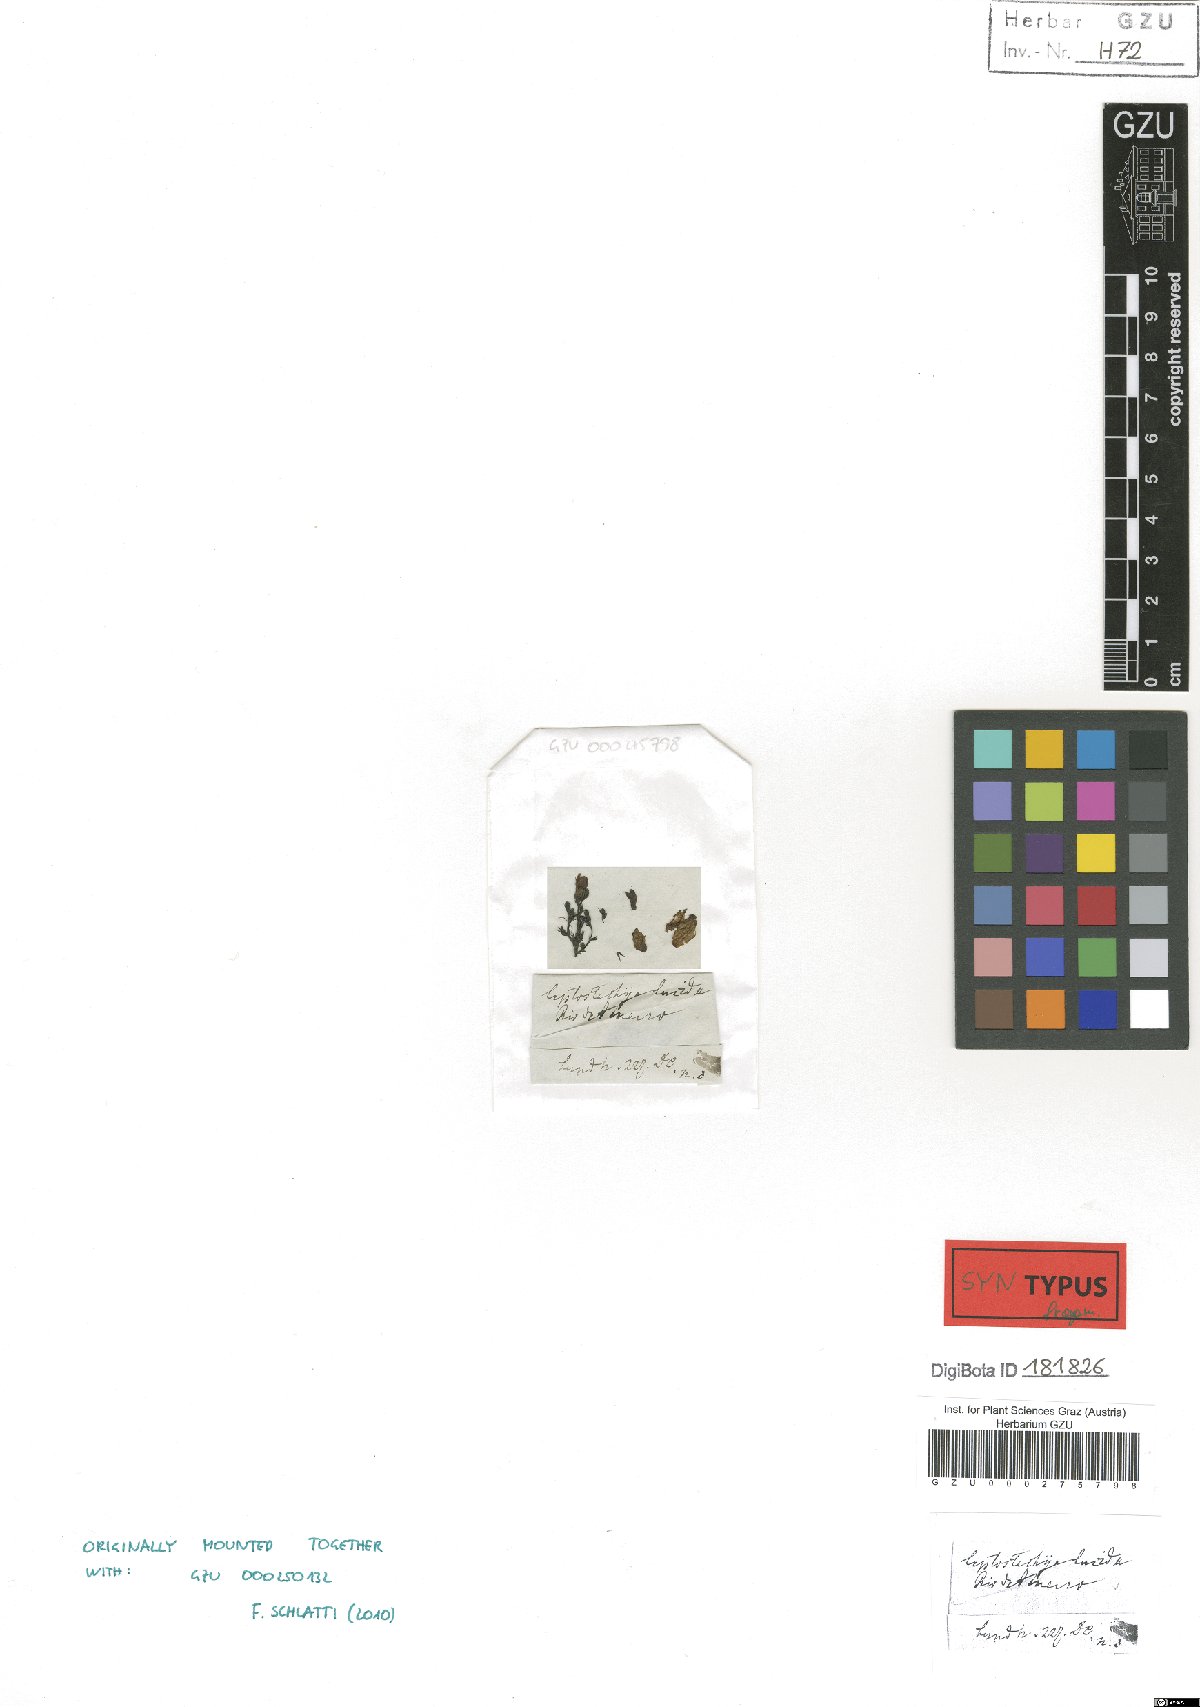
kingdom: Plantae
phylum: Tracheophyta
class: Magnoliopsida
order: Lamiales
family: Acanthaceae
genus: Justicia
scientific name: Justicia luschnathii
